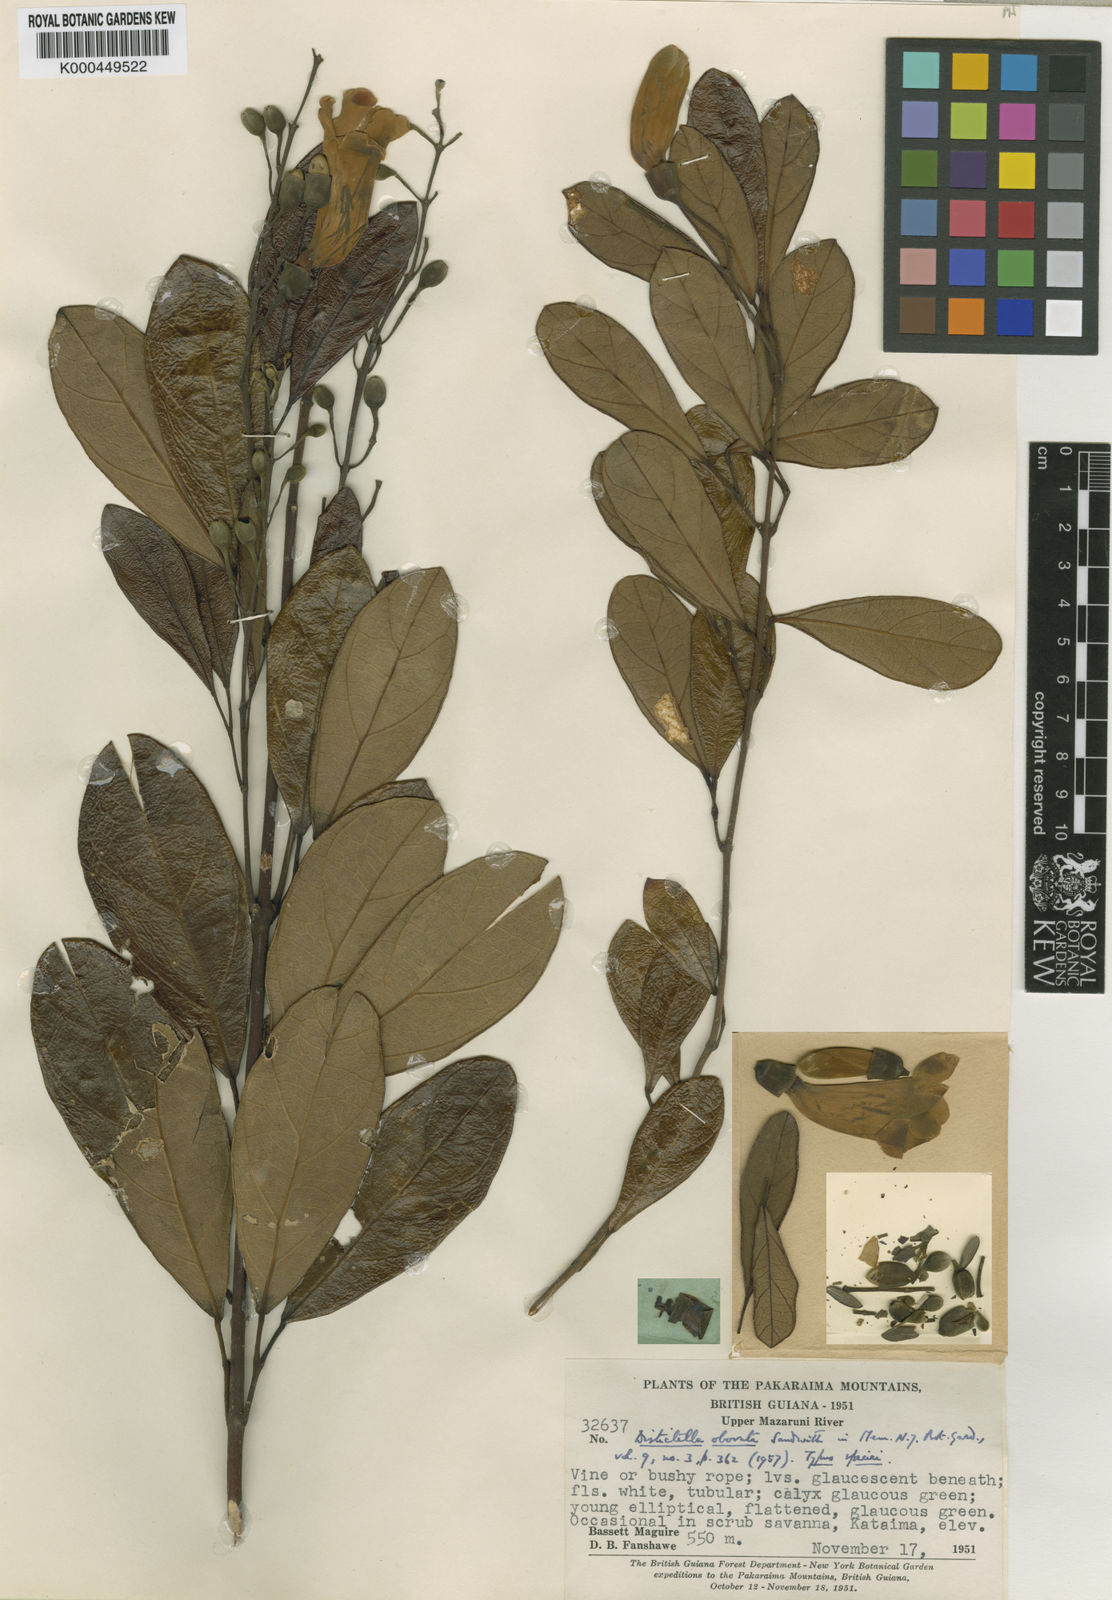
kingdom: Plantae
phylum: Tracheophyta
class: Magnoliopsida
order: Lamiales
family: Bignoniaceae
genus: Amphilophium
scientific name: Amphilophium obovatum
